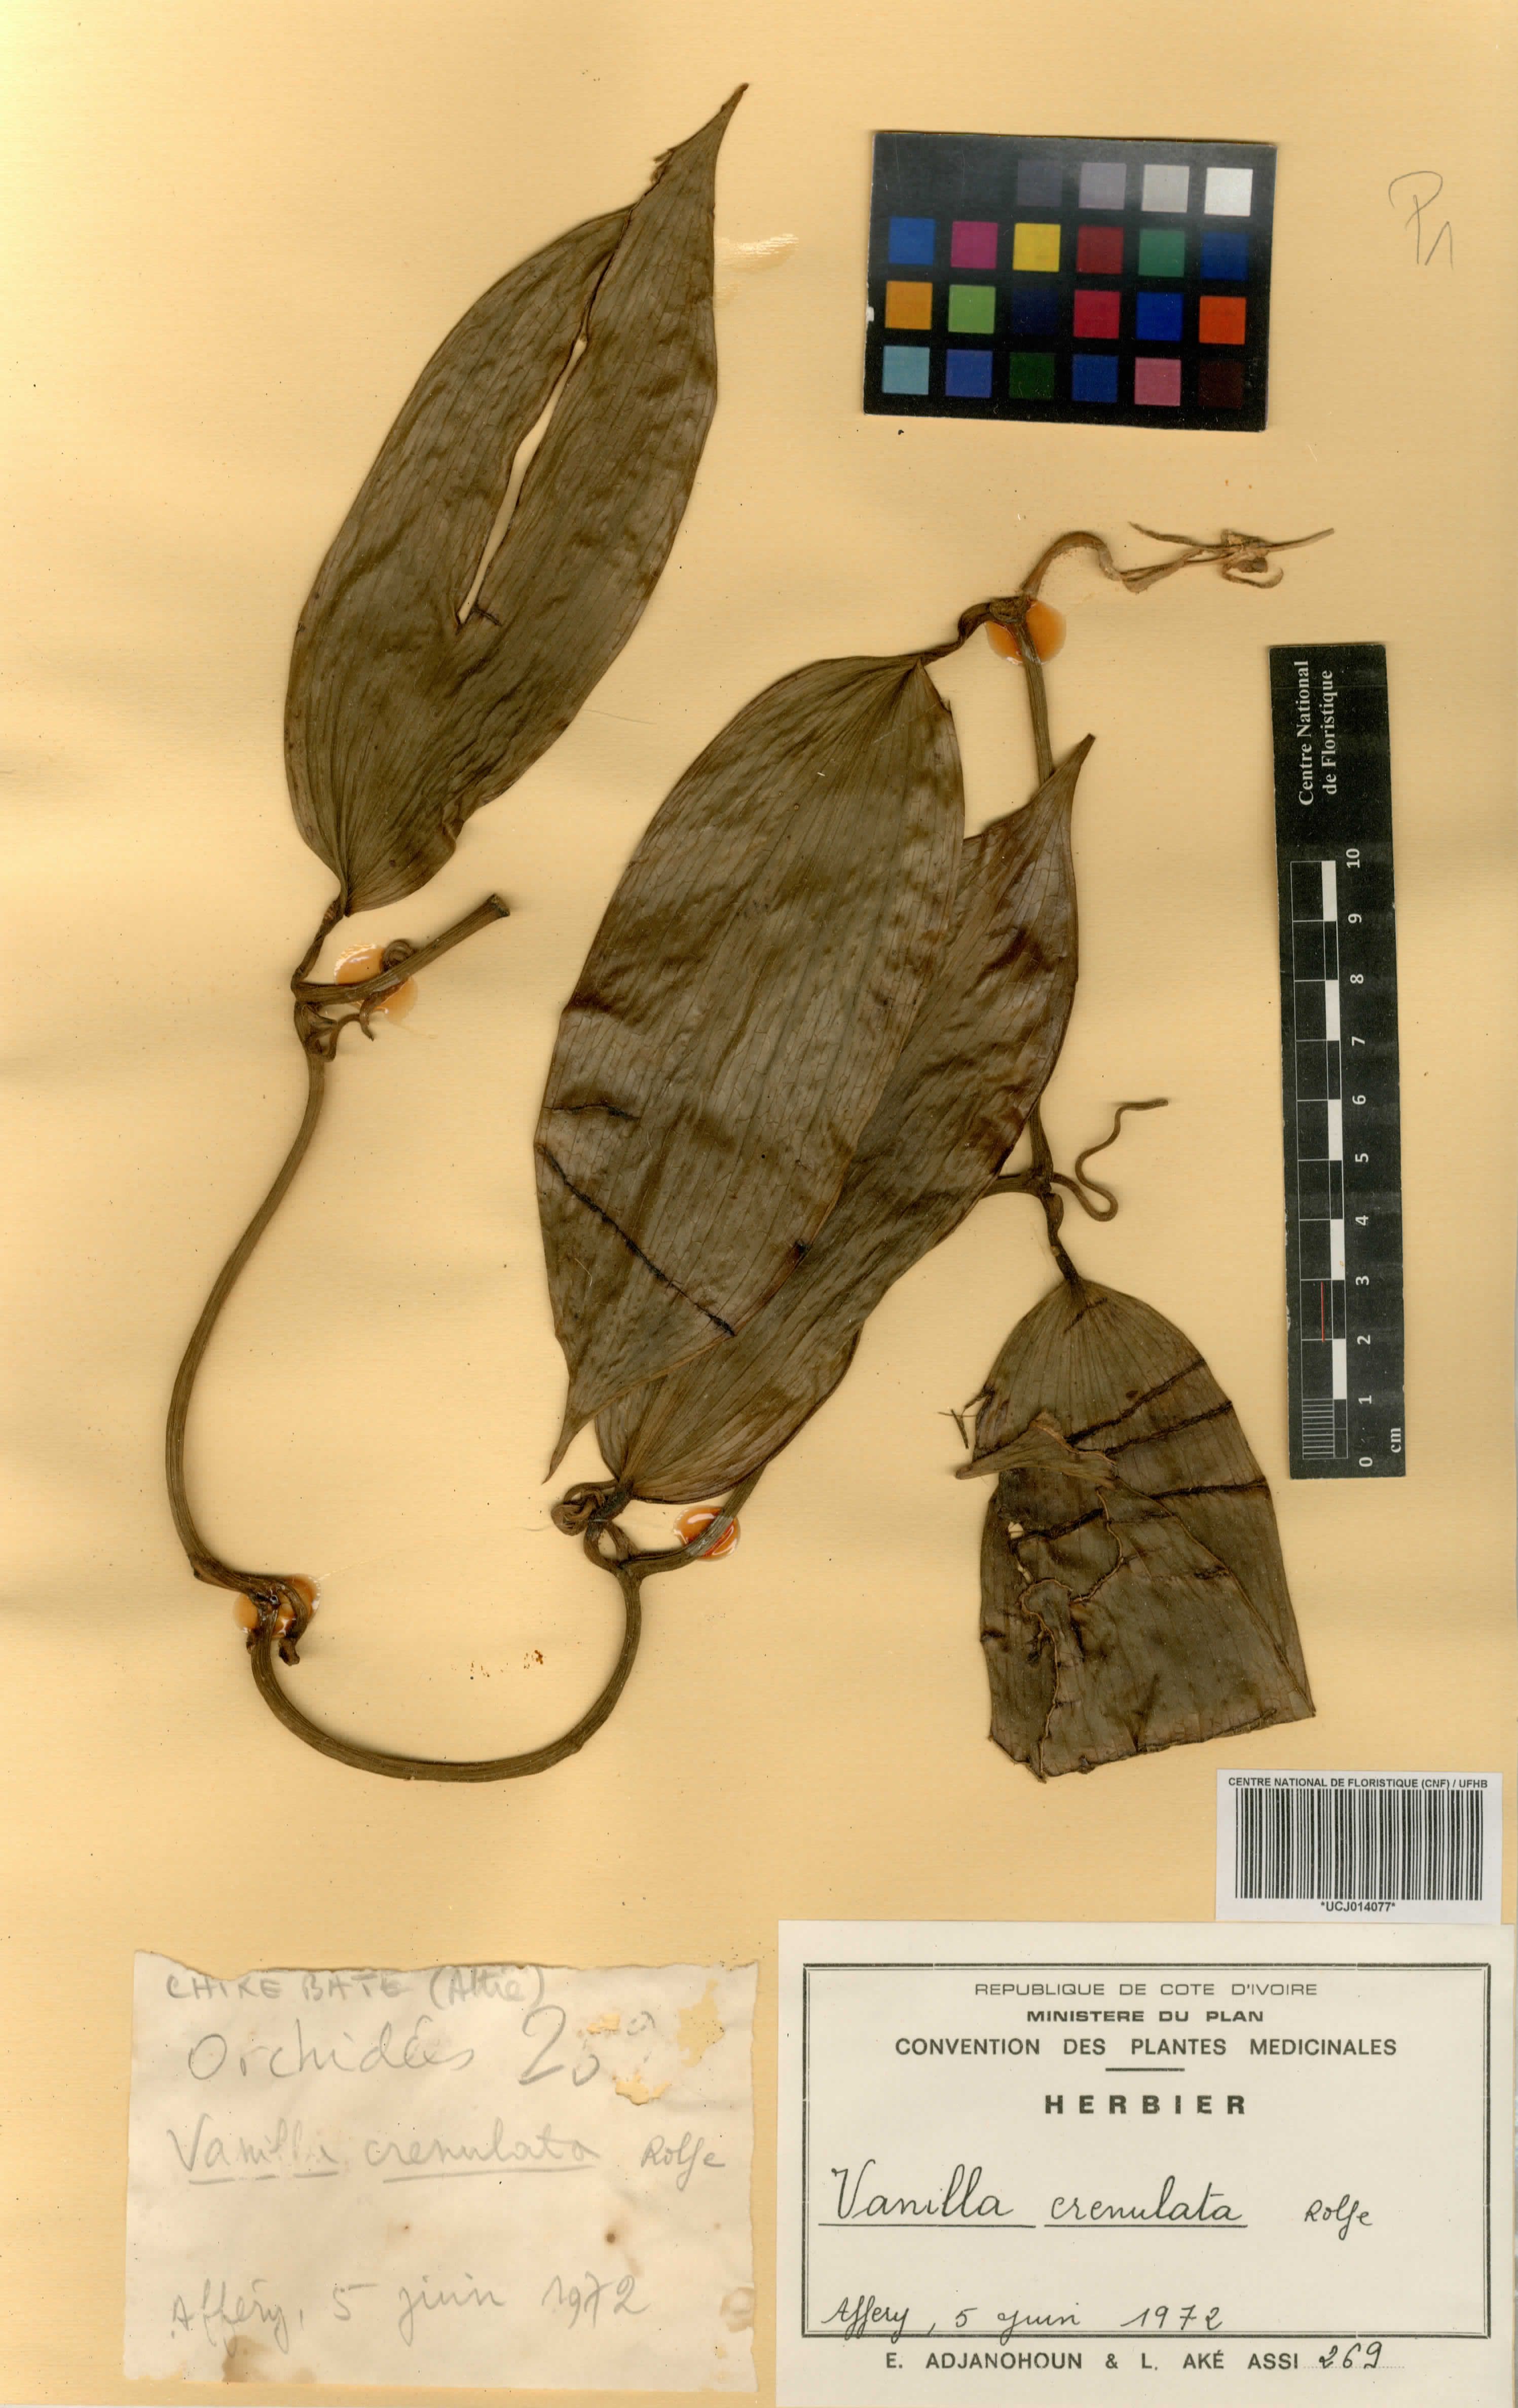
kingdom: Plantae
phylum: Tracheophyta
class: Liliopsida
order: Asparagales
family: Orchidaceae
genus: Vanilla
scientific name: Vanilla crenulata
